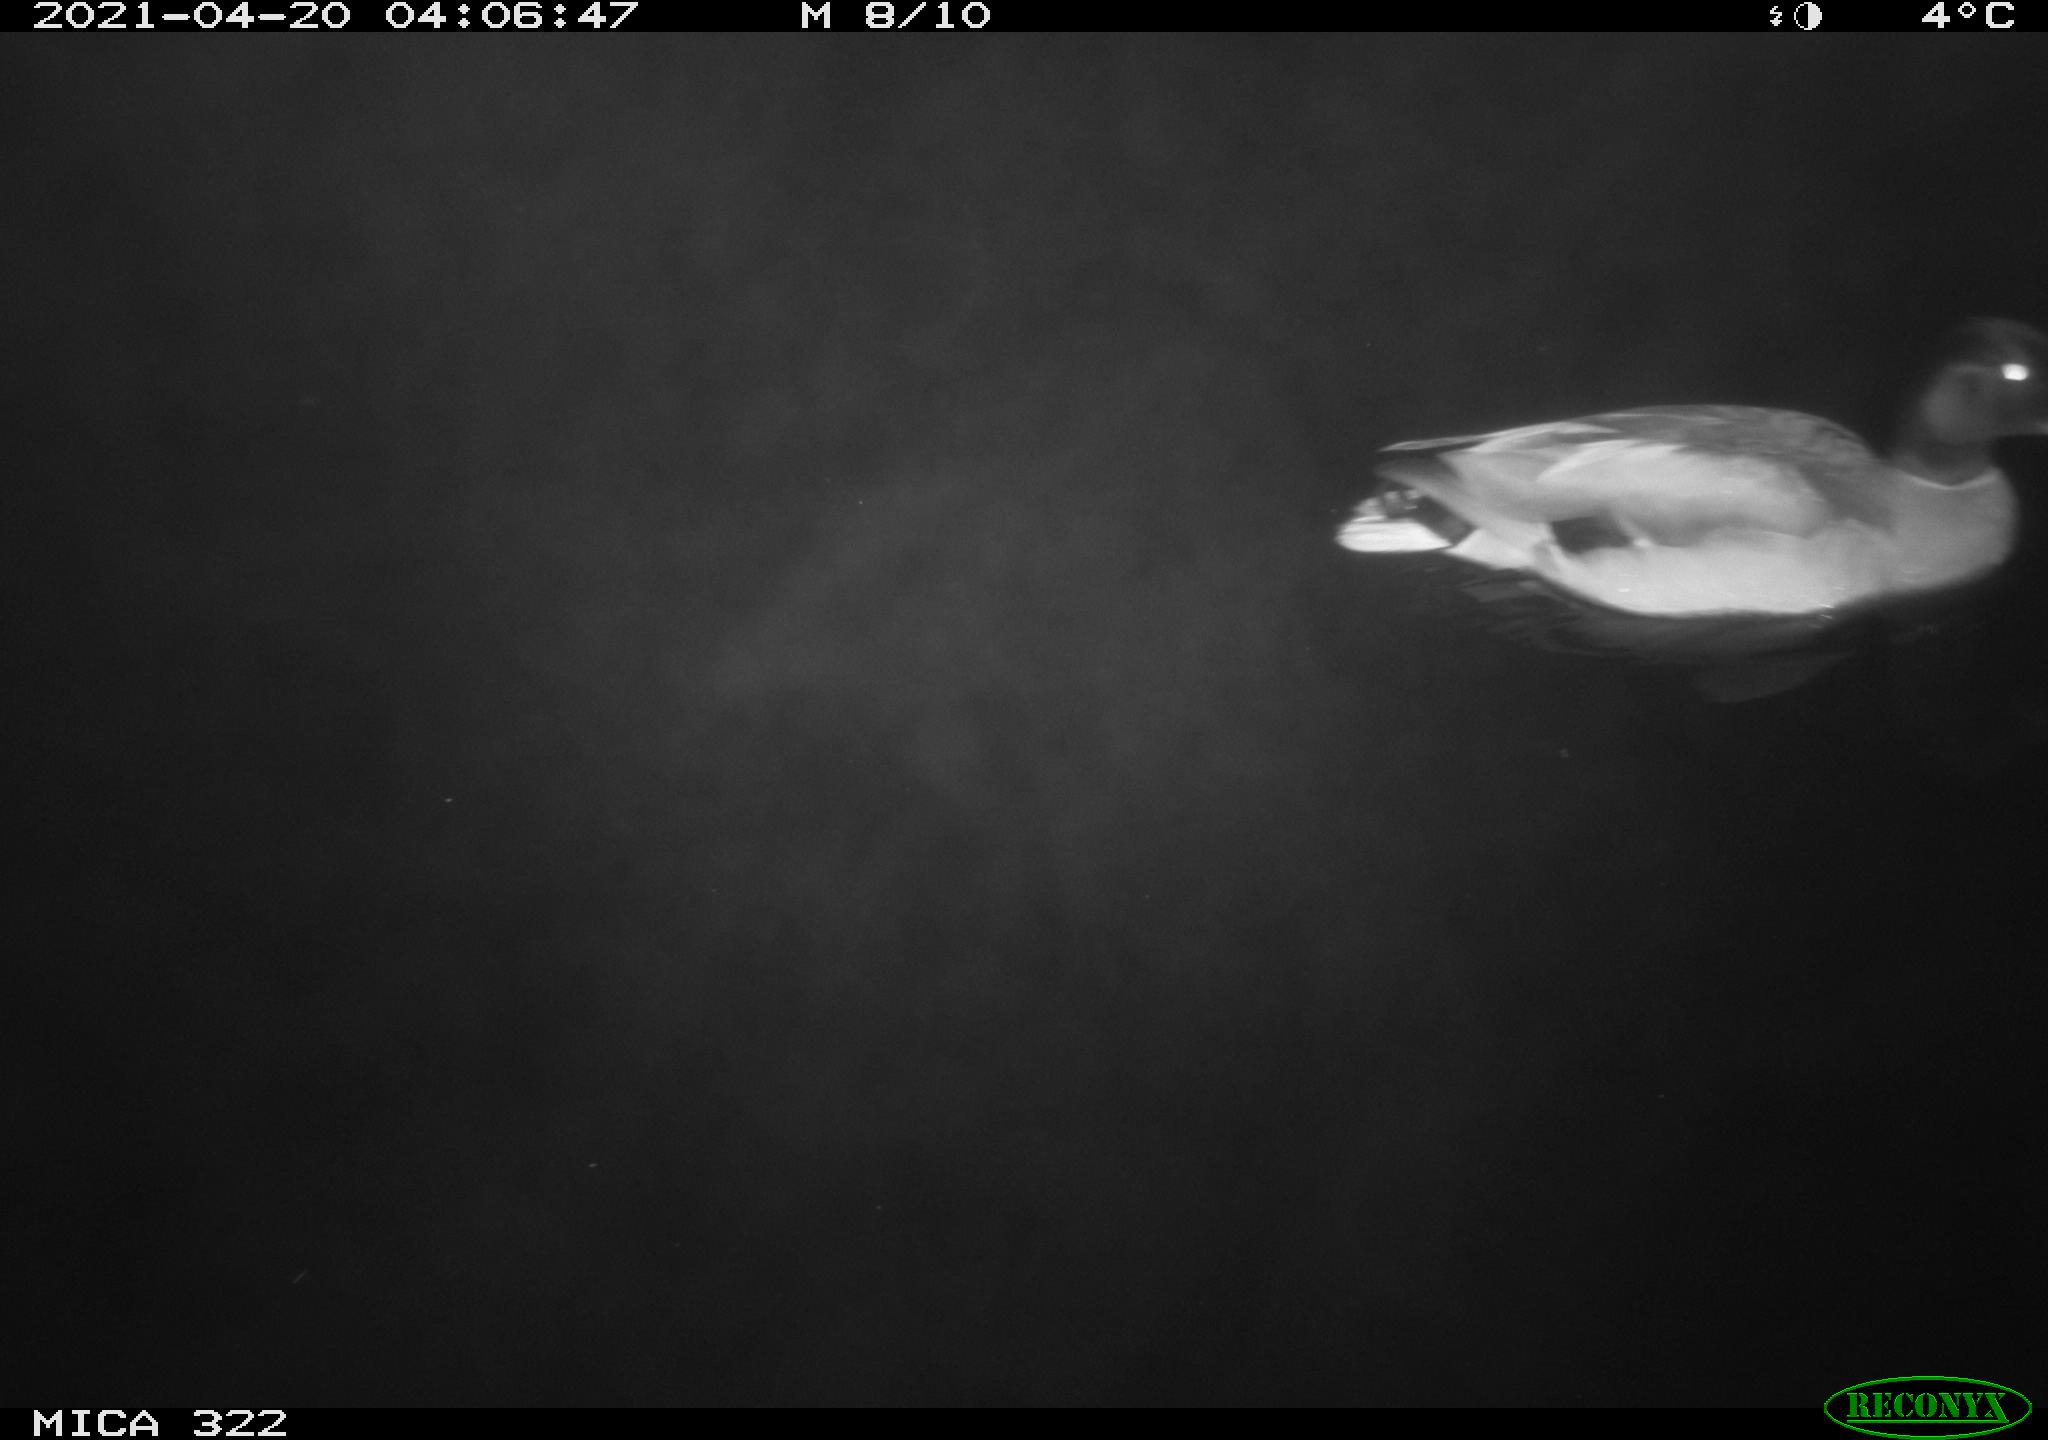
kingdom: Animalia
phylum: Chordata
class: Aves
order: Anseriformes
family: Anatidae
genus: Anas
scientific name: Anas platyrhynchos
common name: Mallard
